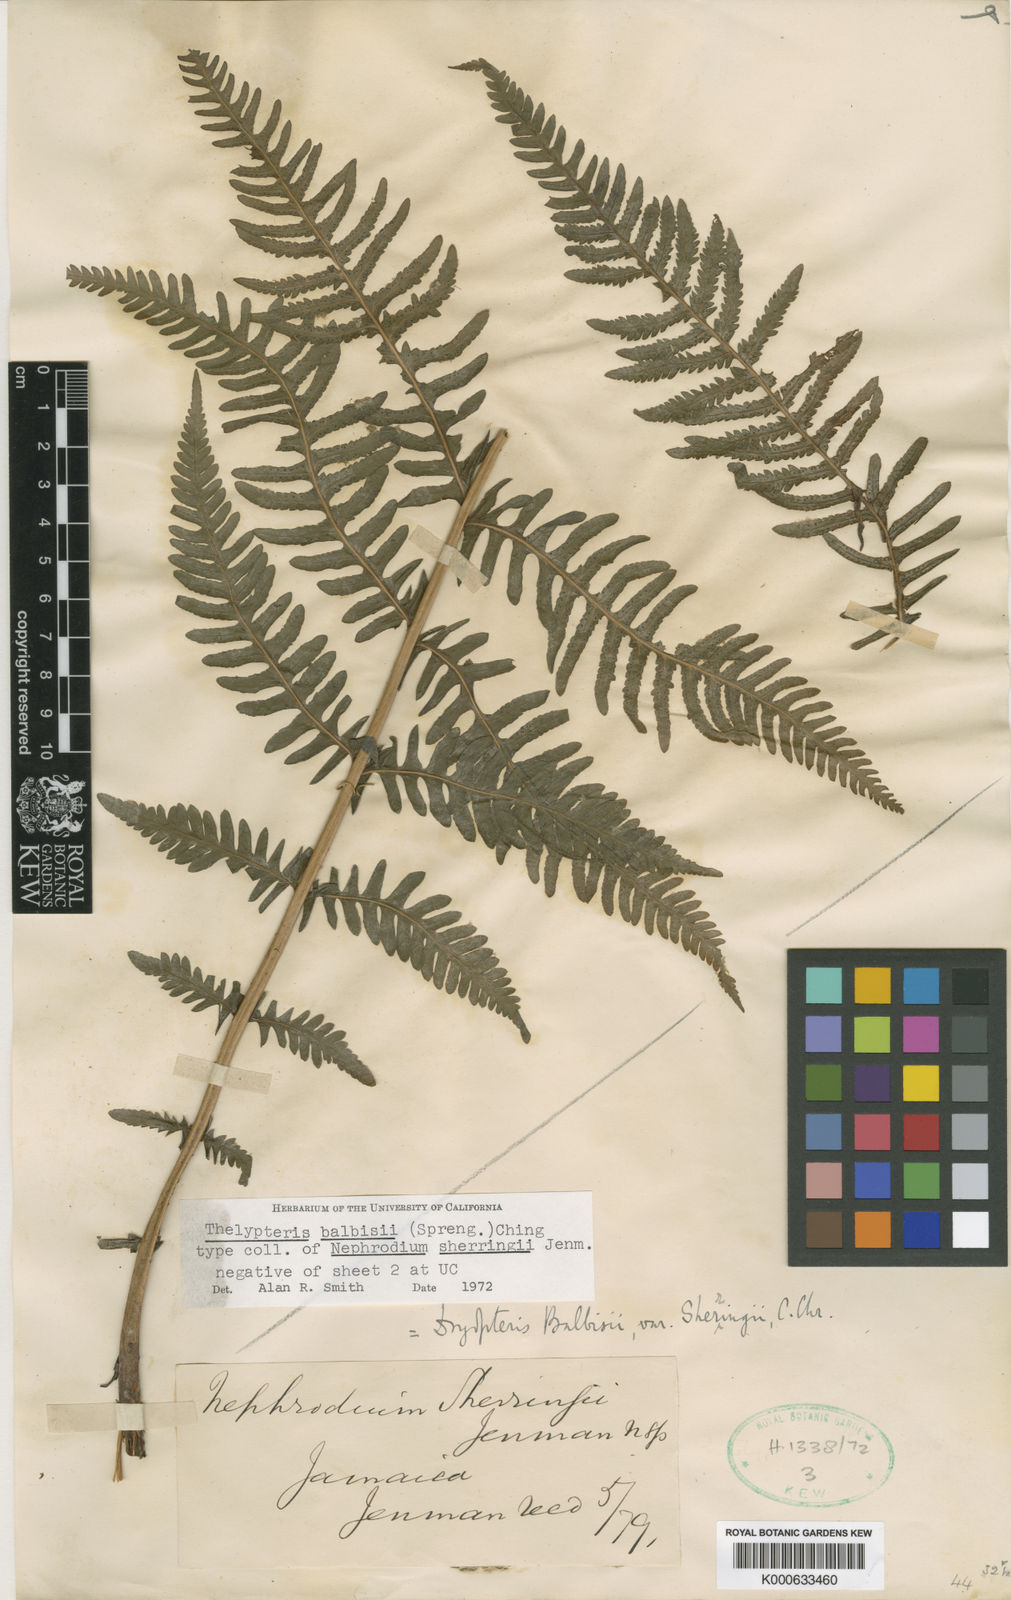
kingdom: Plantae
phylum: Tracheophyta
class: Polypodiopsida
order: Polypodiales
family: Thelypteridaceae
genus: Amauropelta
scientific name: Amauropelta balbisii
